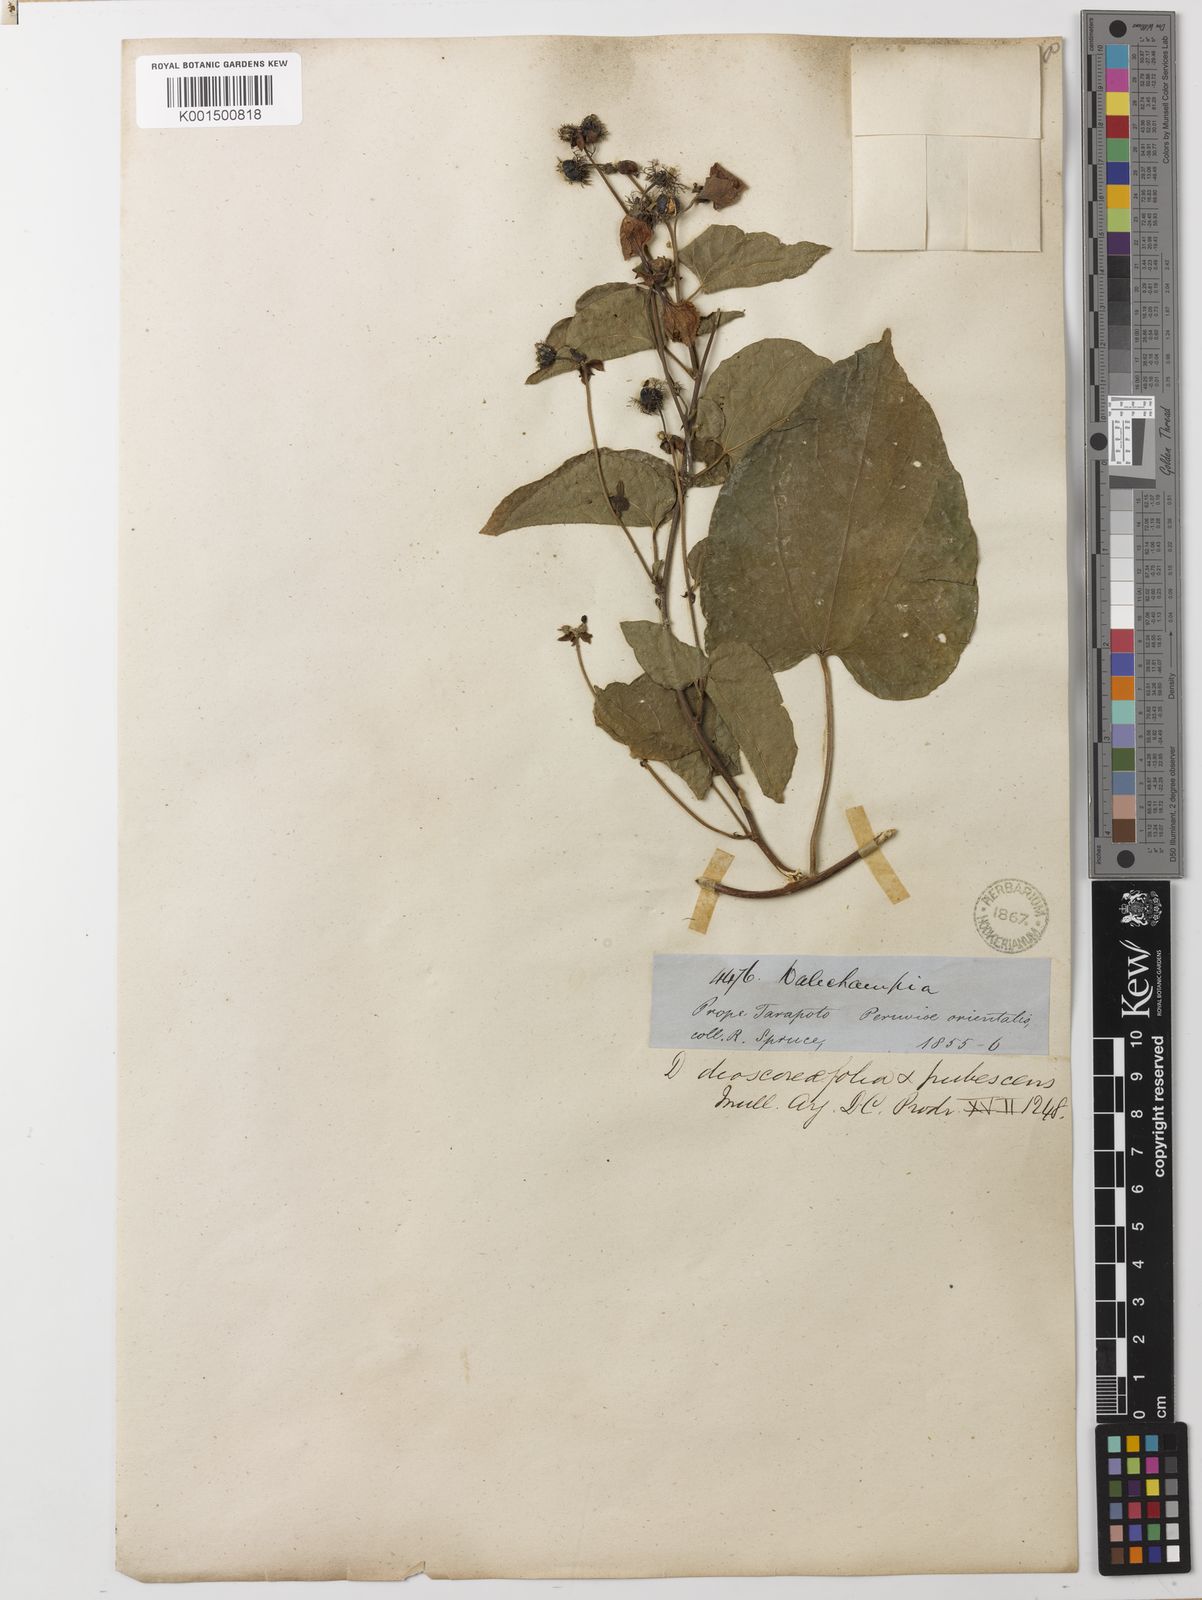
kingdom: Plantae
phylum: Tracheophyta
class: Magnoliopsida
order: Malpighiales
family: Euphorbiaceae
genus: Dalechampia
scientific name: Dalechampia dioscoreifolia
